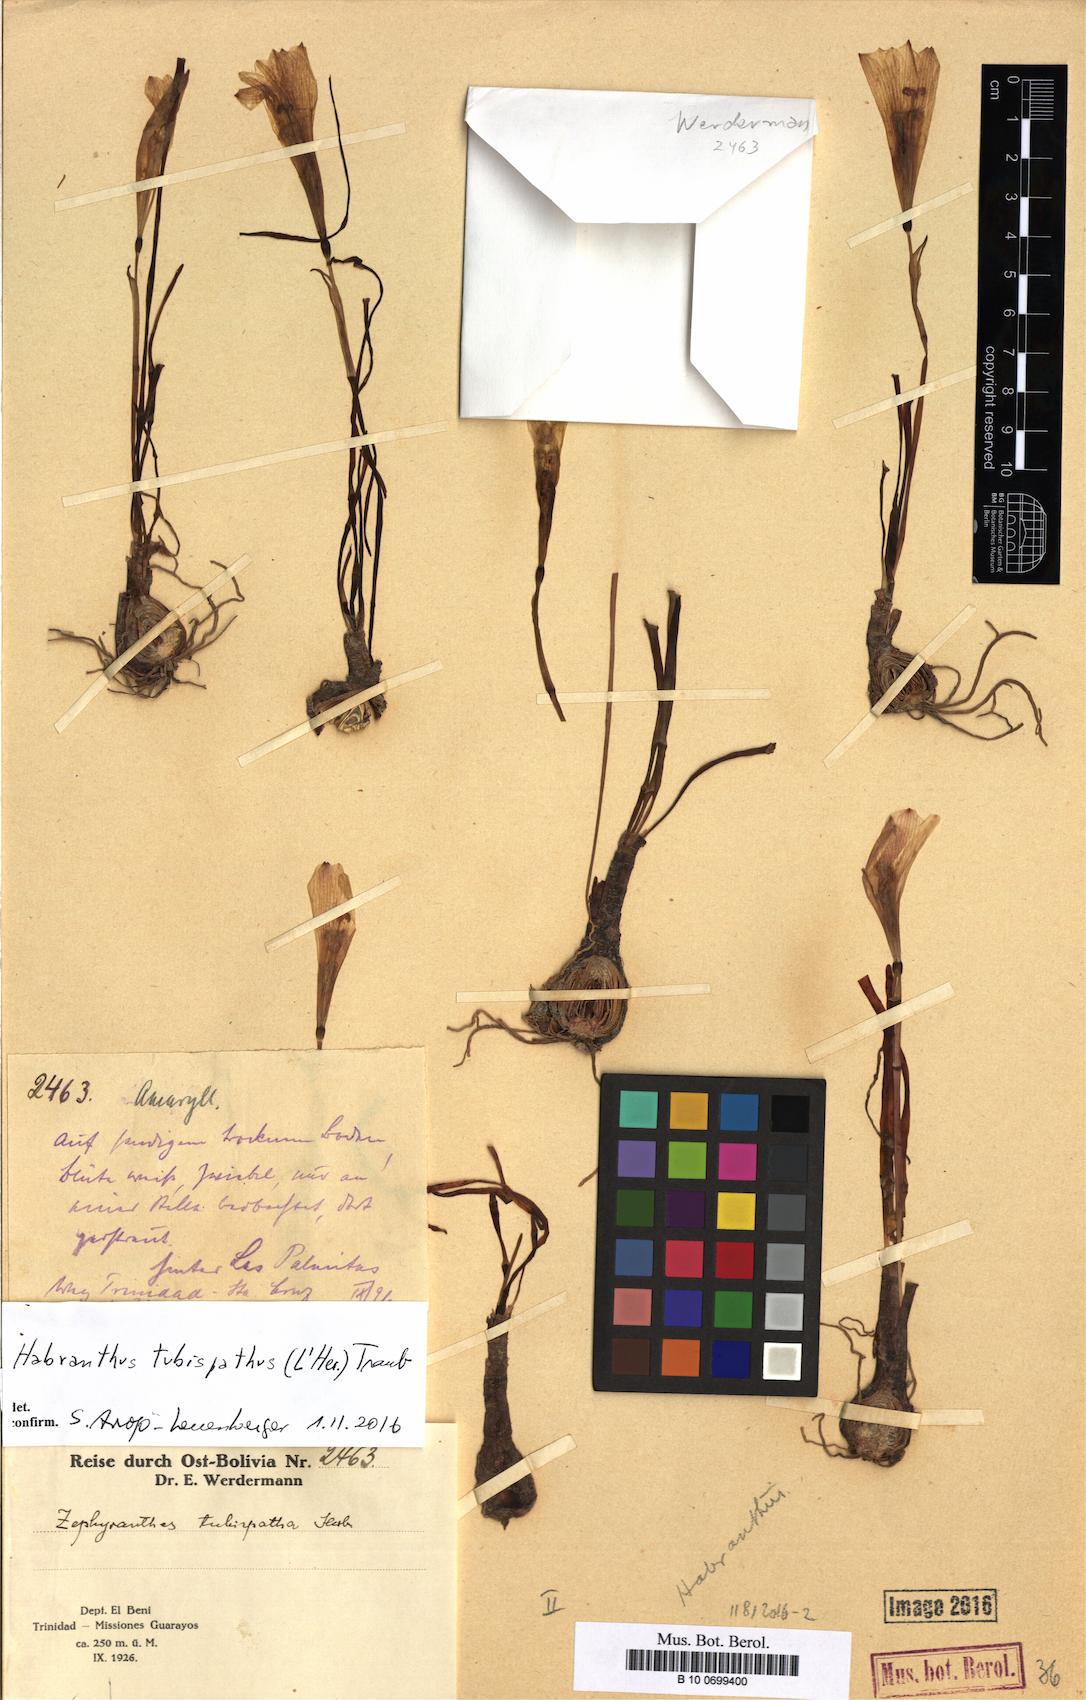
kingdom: Plantae
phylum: Tracheophyta
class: Liliopsida
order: Asparagales
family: Amaryllidaceae
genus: Zephyranthes
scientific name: Zephyranthes tubispatha
